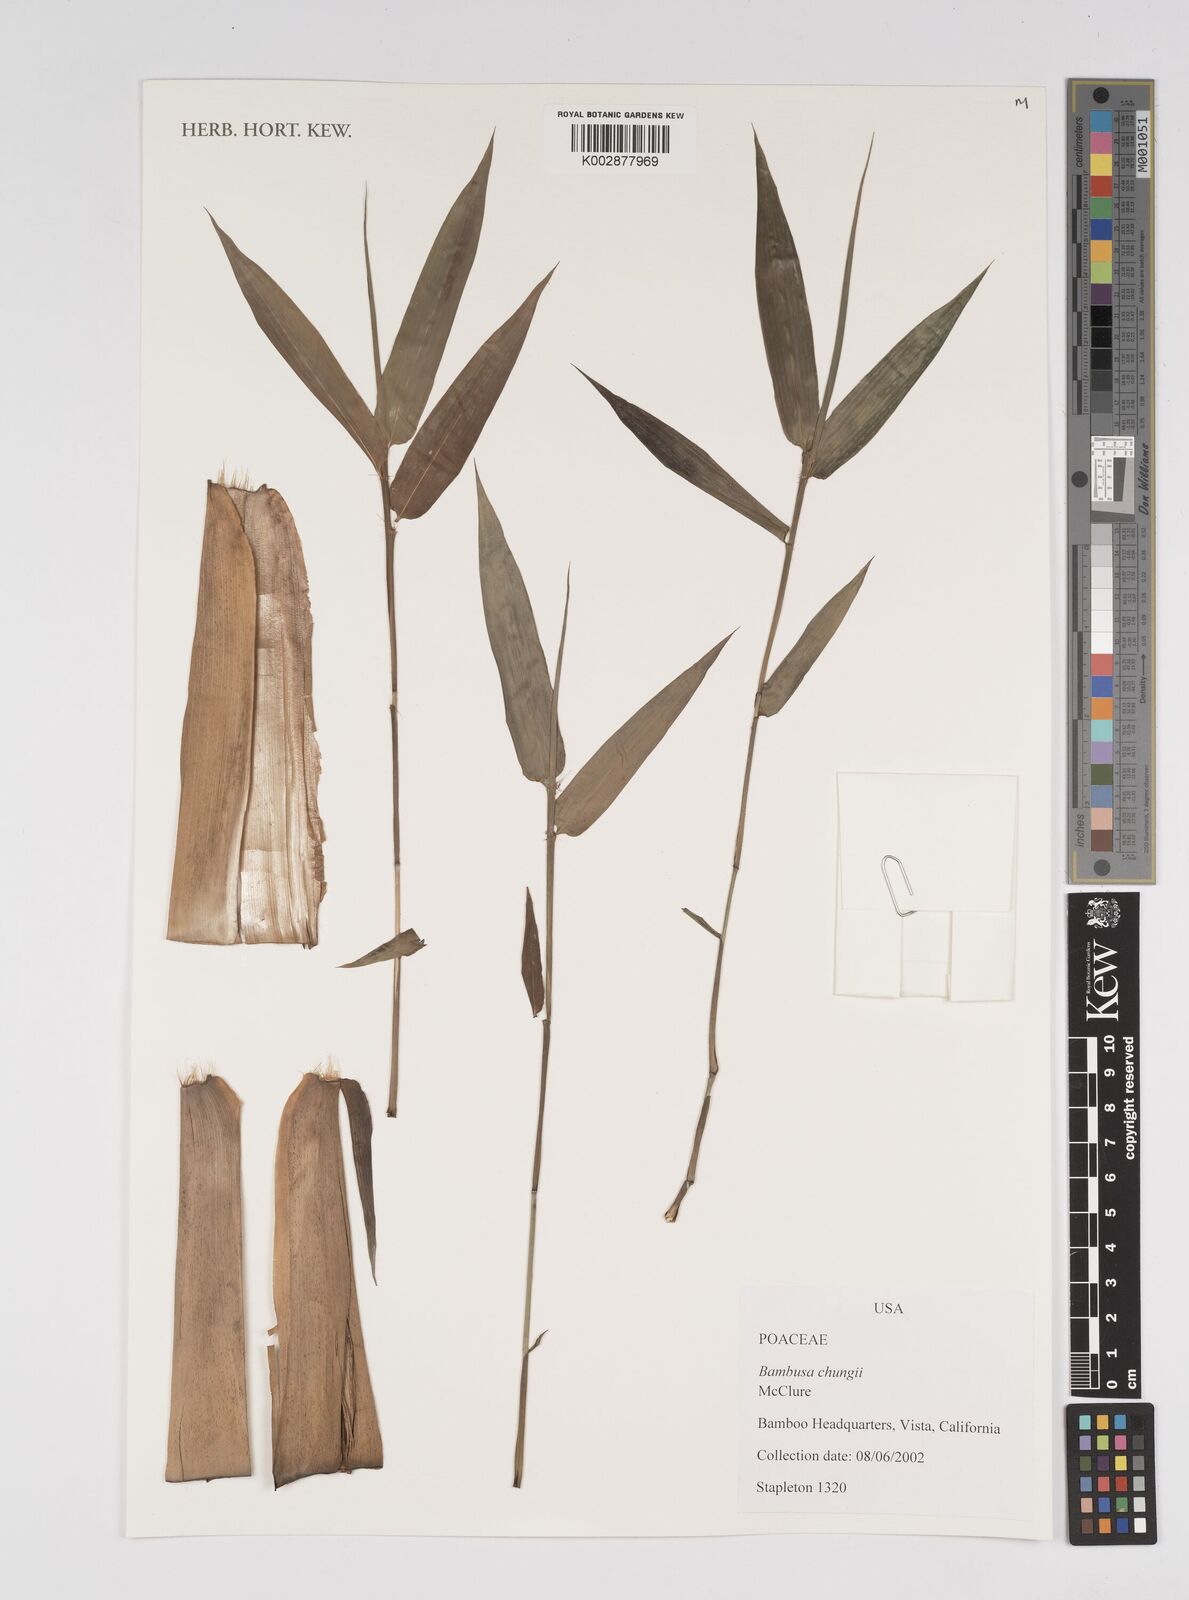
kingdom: Plantae
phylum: Tracheophyta
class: Liliopsida
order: Poales
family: Poaceae
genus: Bambusa
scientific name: Bambusa chungii
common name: White-powder bamboo
